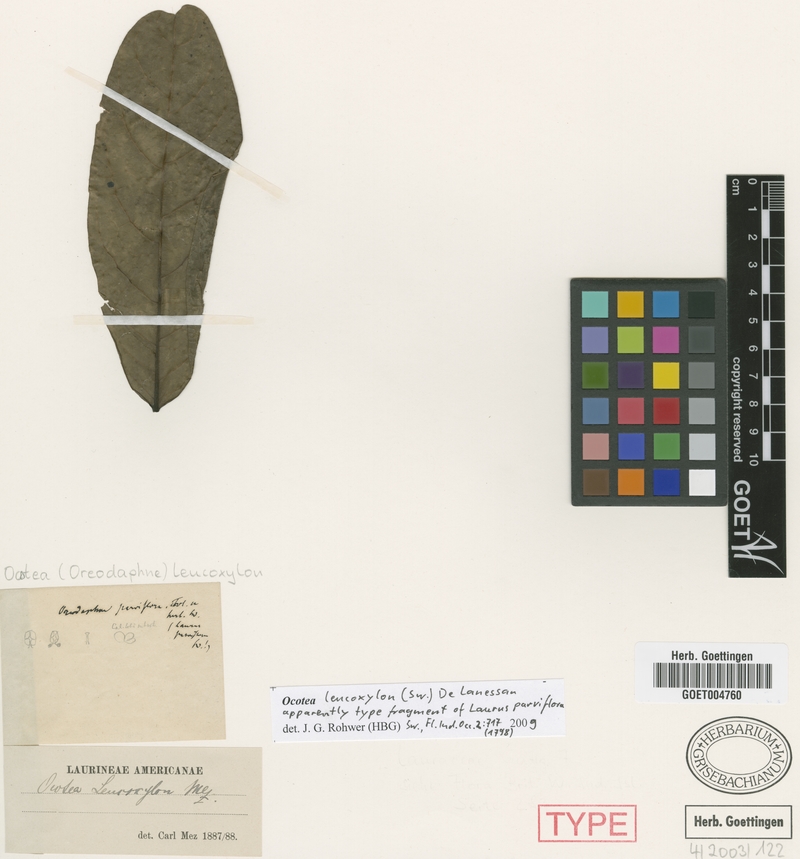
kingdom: Plantae
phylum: Tracheophyta
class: Magnoliopsida
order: Laurales
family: Lauraceae
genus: Ocotea
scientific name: Ocotea leucoxylon
